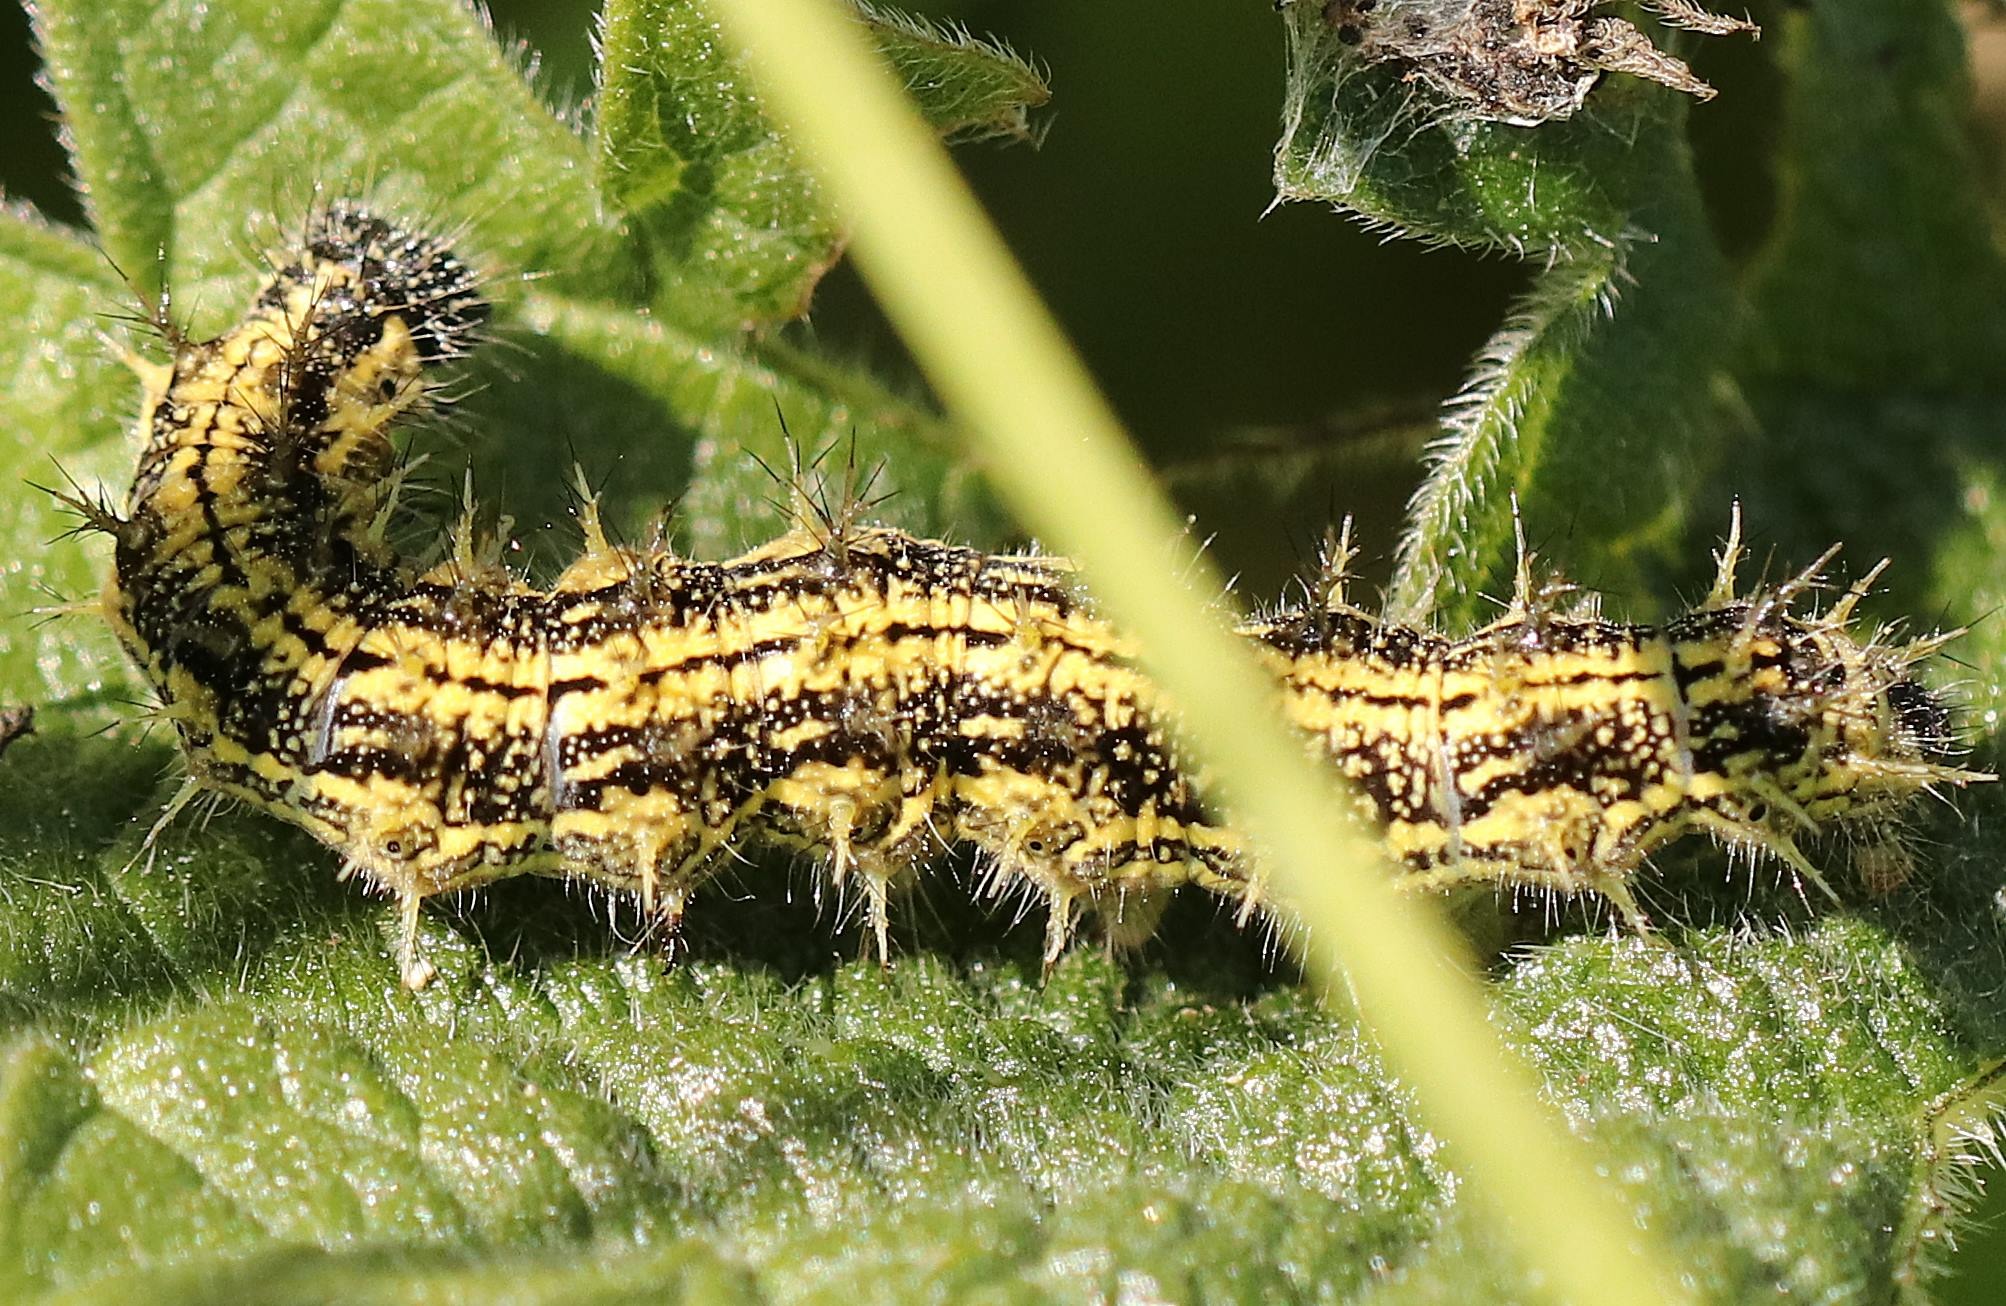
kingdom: Animalia
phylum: Arthropoda
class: Insecta
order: Lepidoptera
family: Nymphalidae
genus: Aglais
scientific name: Aglais urticae
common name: Nældens takvinge
